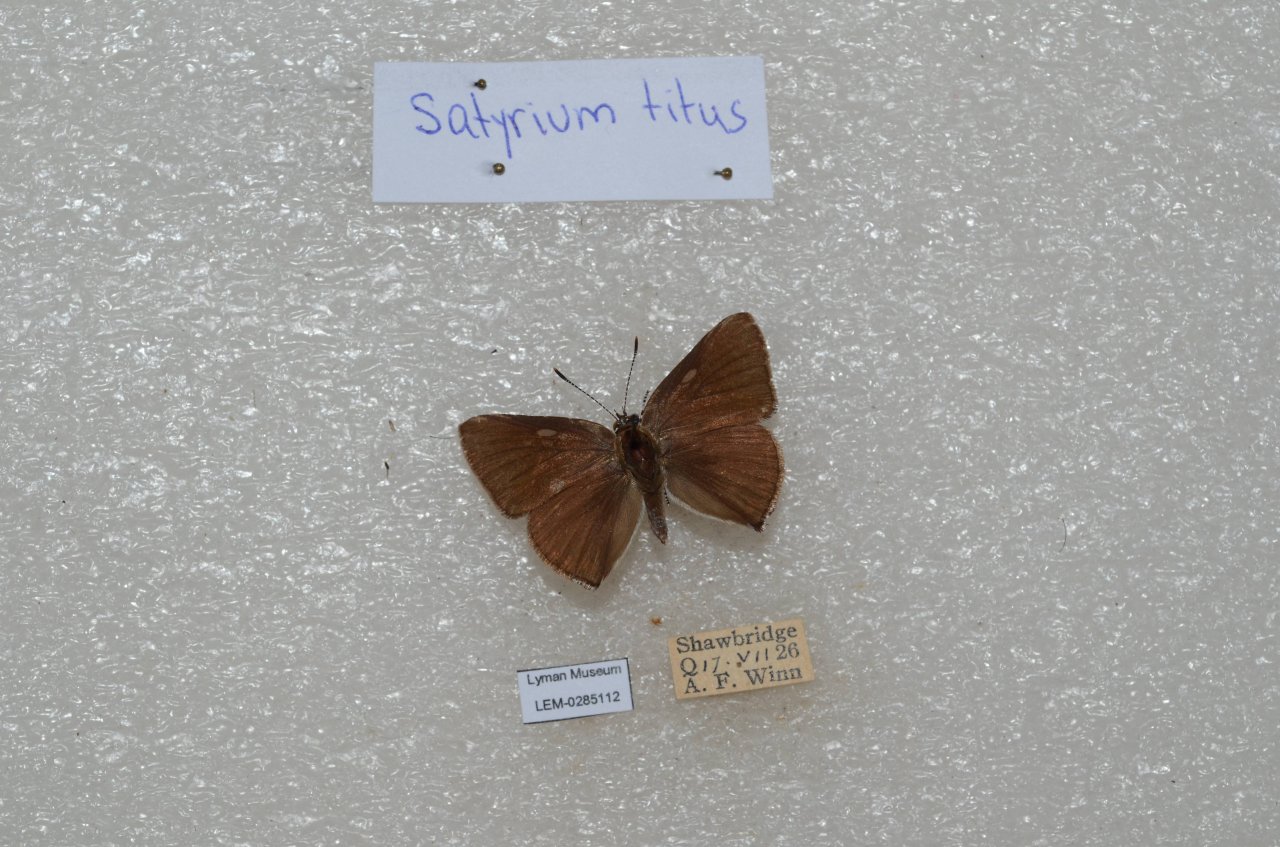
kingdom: Animalia
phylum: Arthropoda
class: Insecta
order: Lepidoptera
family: Lycaenidae
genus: Harkenclenus
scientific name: Harkenclenus titus
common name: Coral Hairstreak
